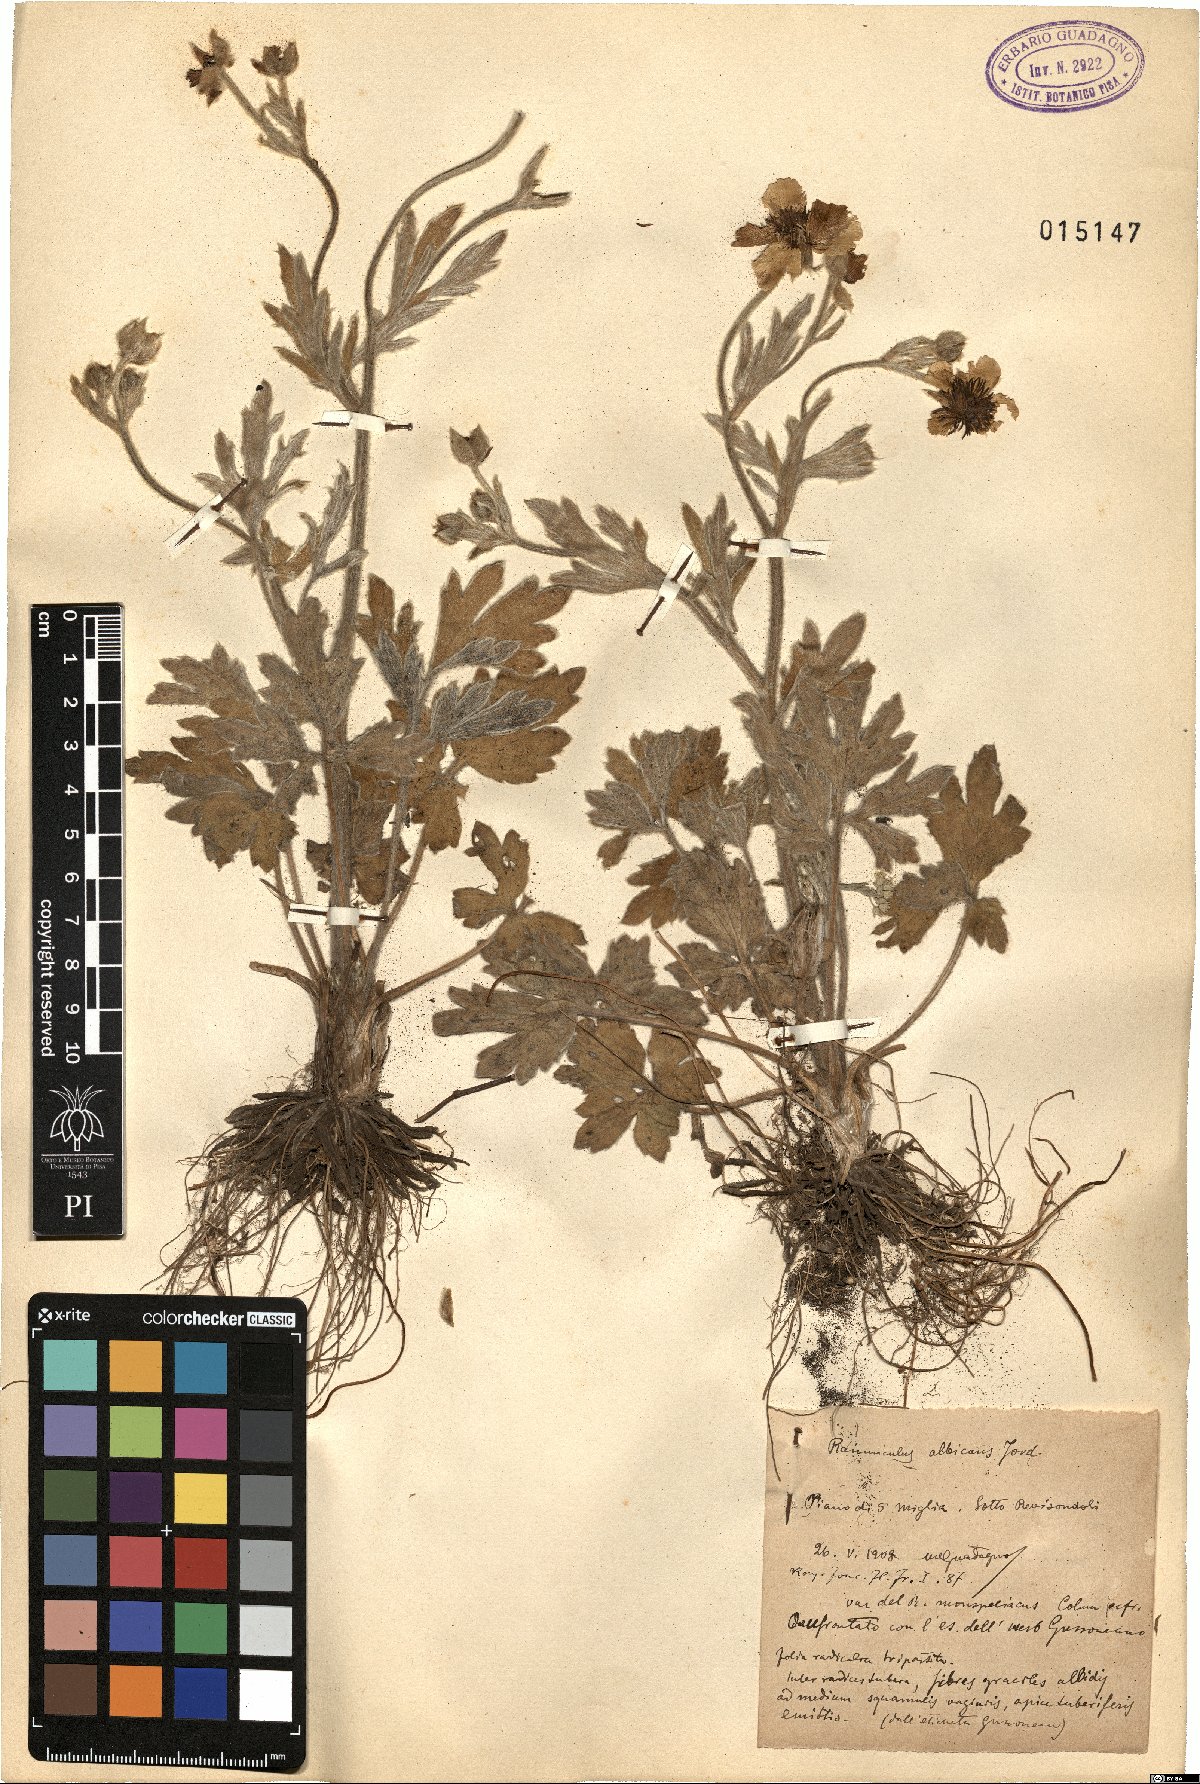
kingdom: Plantae
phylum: Tracheophyta
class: Magnoliopsida
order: Ranunculales
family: Ranunculaceae
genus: Ranunculus
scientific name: Ranunculus monspeliacus
